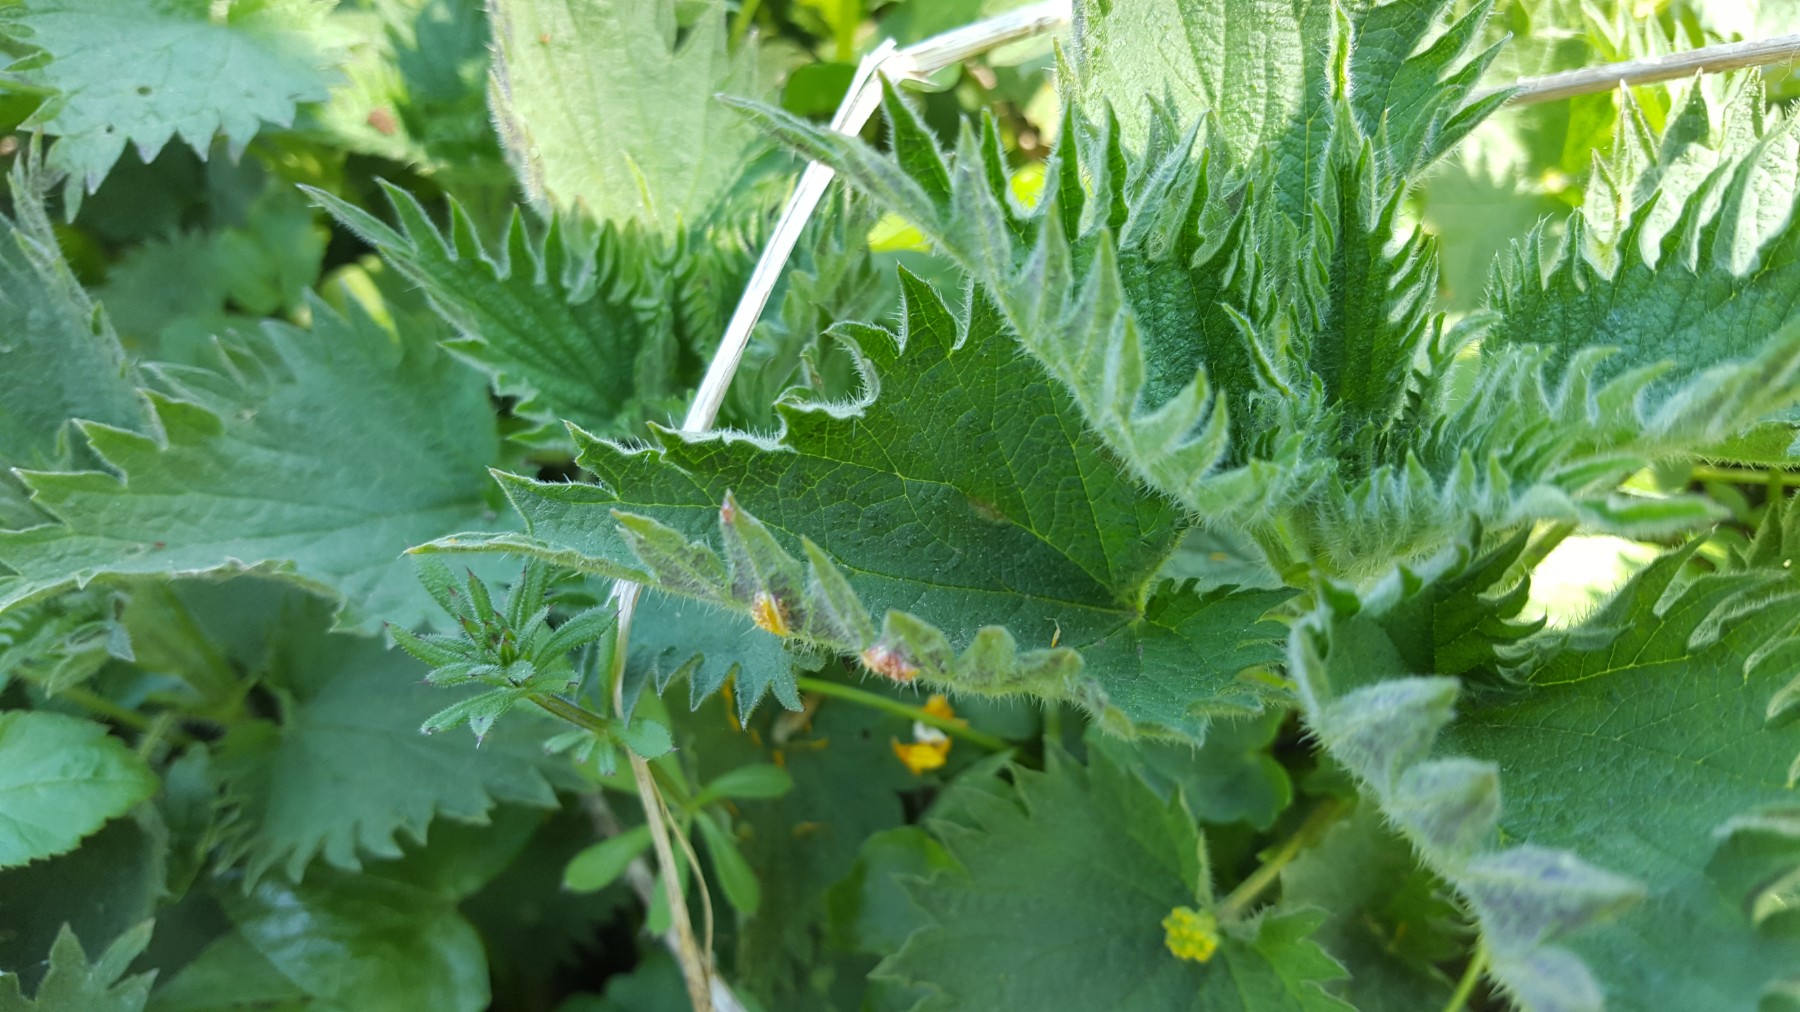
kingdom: Fungi
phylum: Basidiomycota
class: Pucciniomycetes
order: Pucciniales
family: Pucciniaceae
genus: Puccinia
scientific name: Puccinia urticata
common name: nældegalle-tvecellerust
